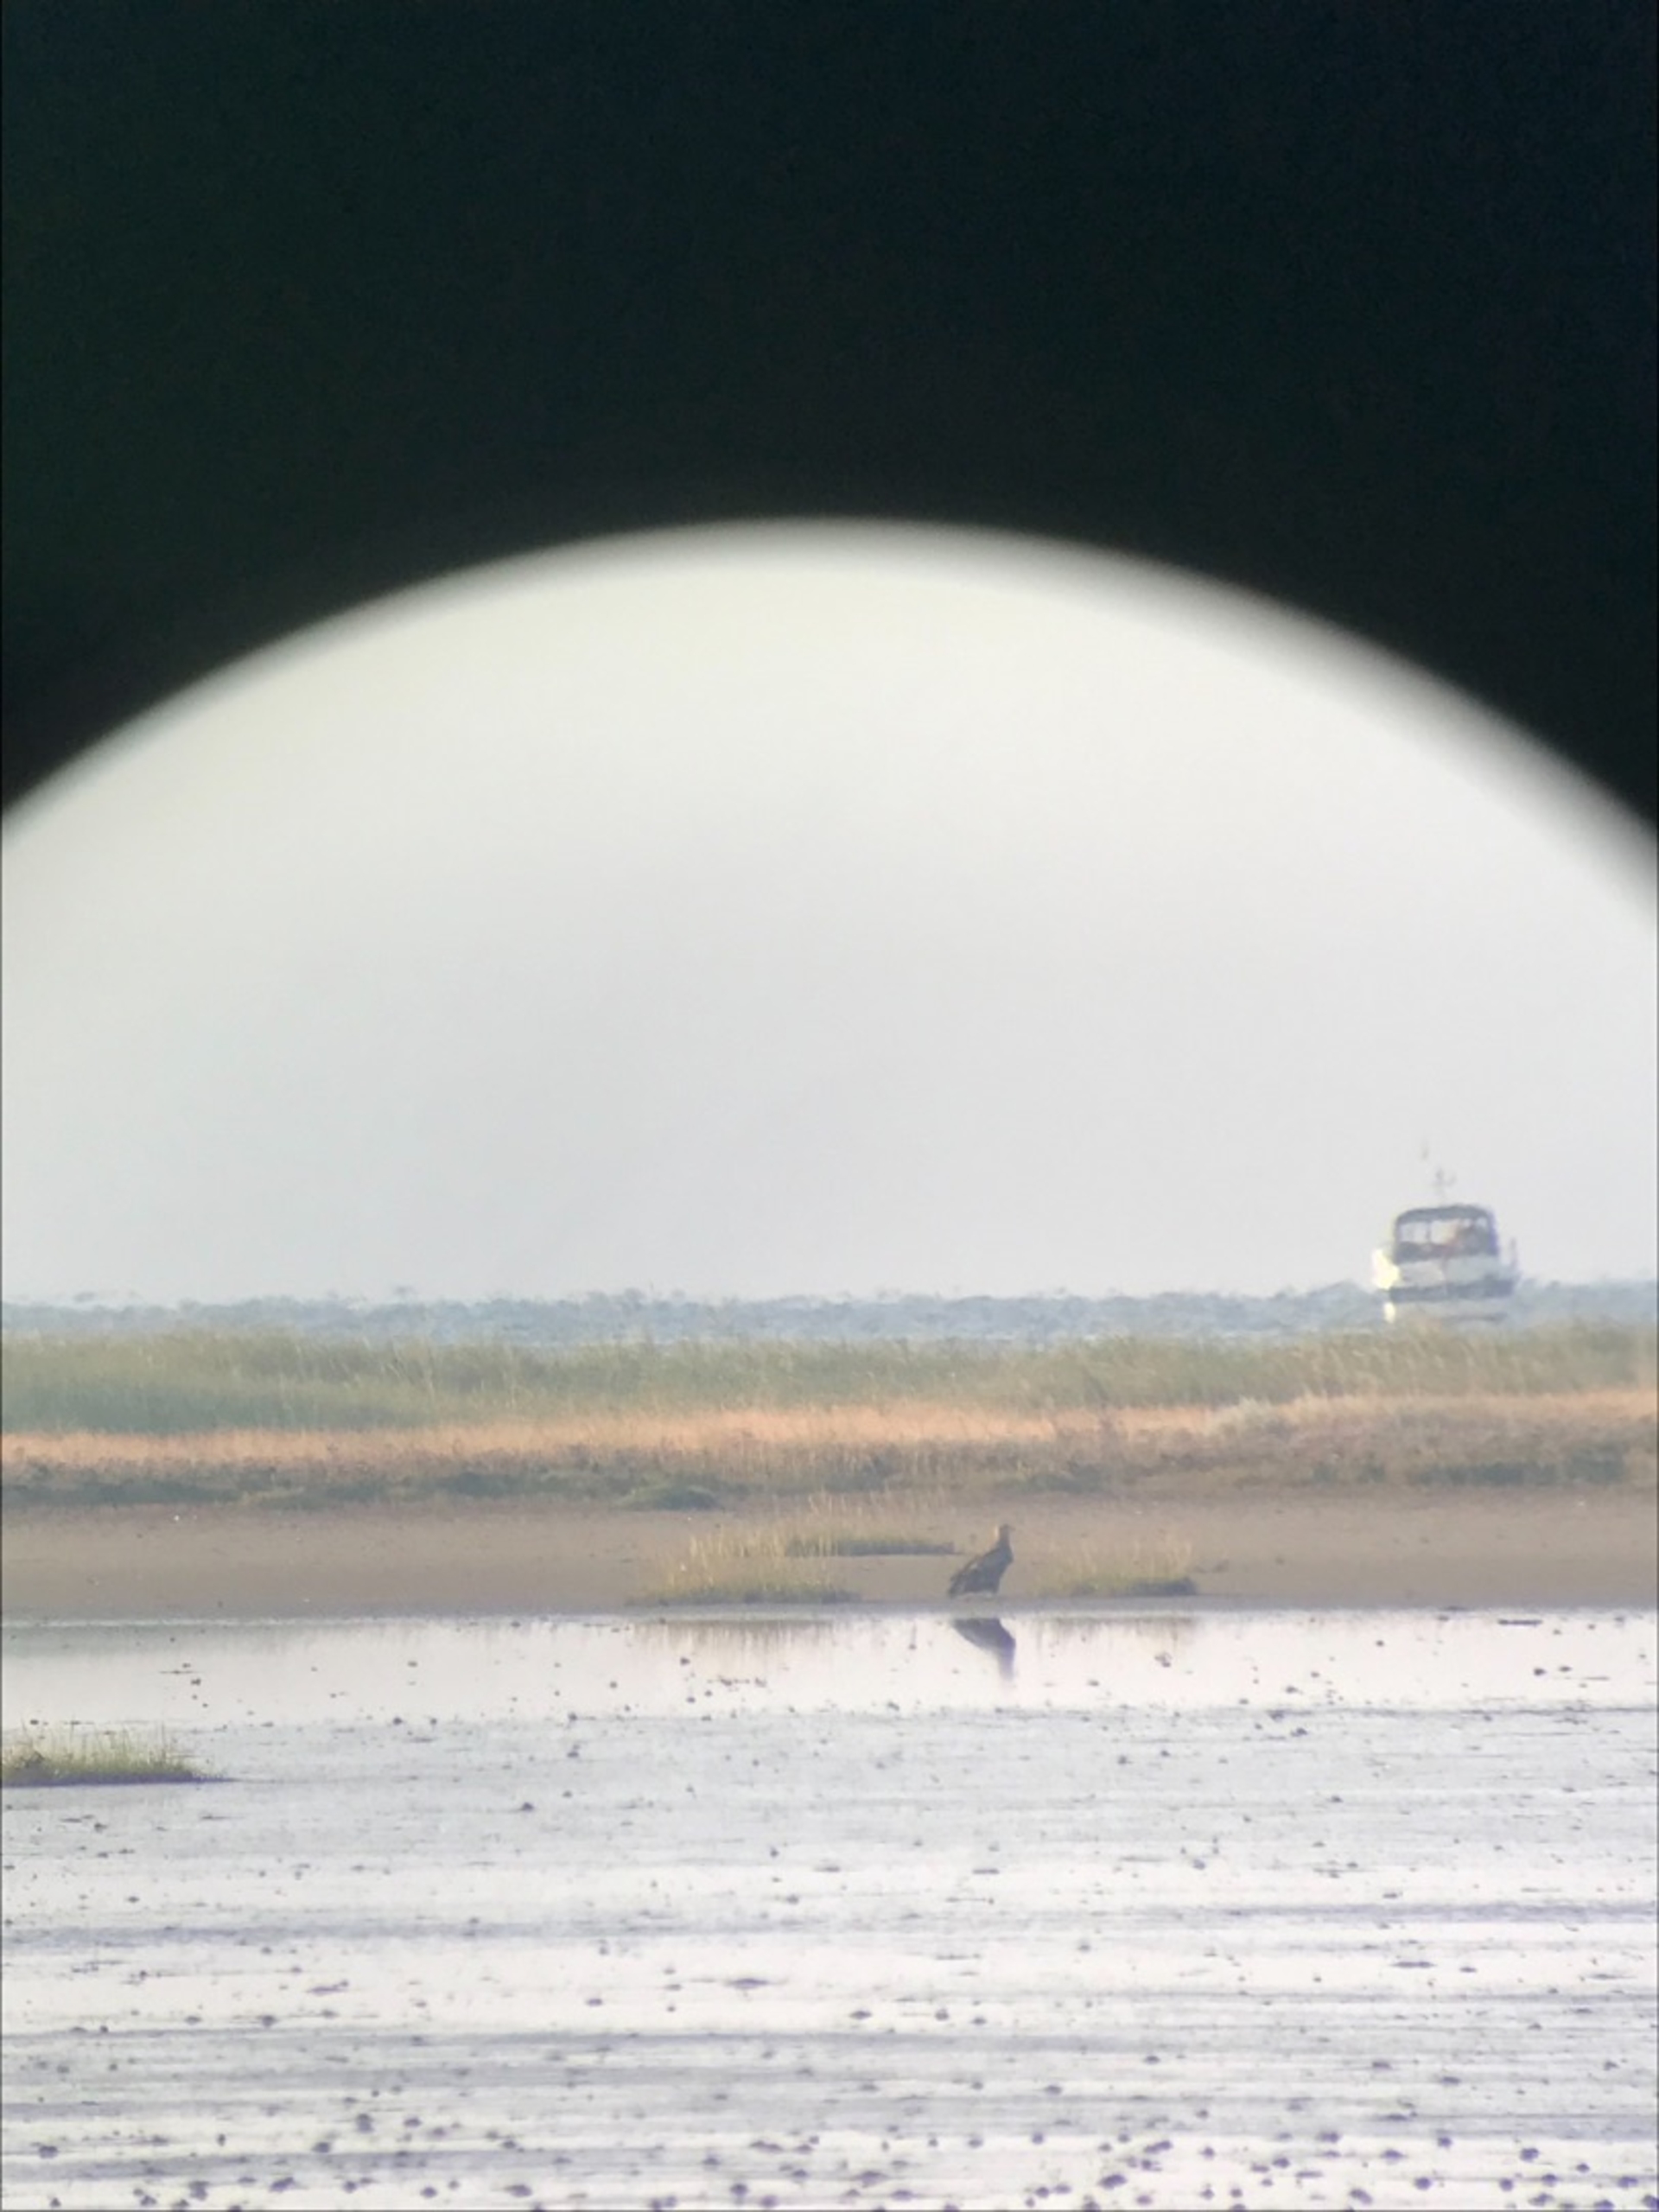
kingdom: Animalia
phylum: Chordata
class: Aves
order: Accipitriformes
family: Accipitridae
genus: Haliaeetus
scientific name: Haliaeetus albicilla
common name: Havørn
